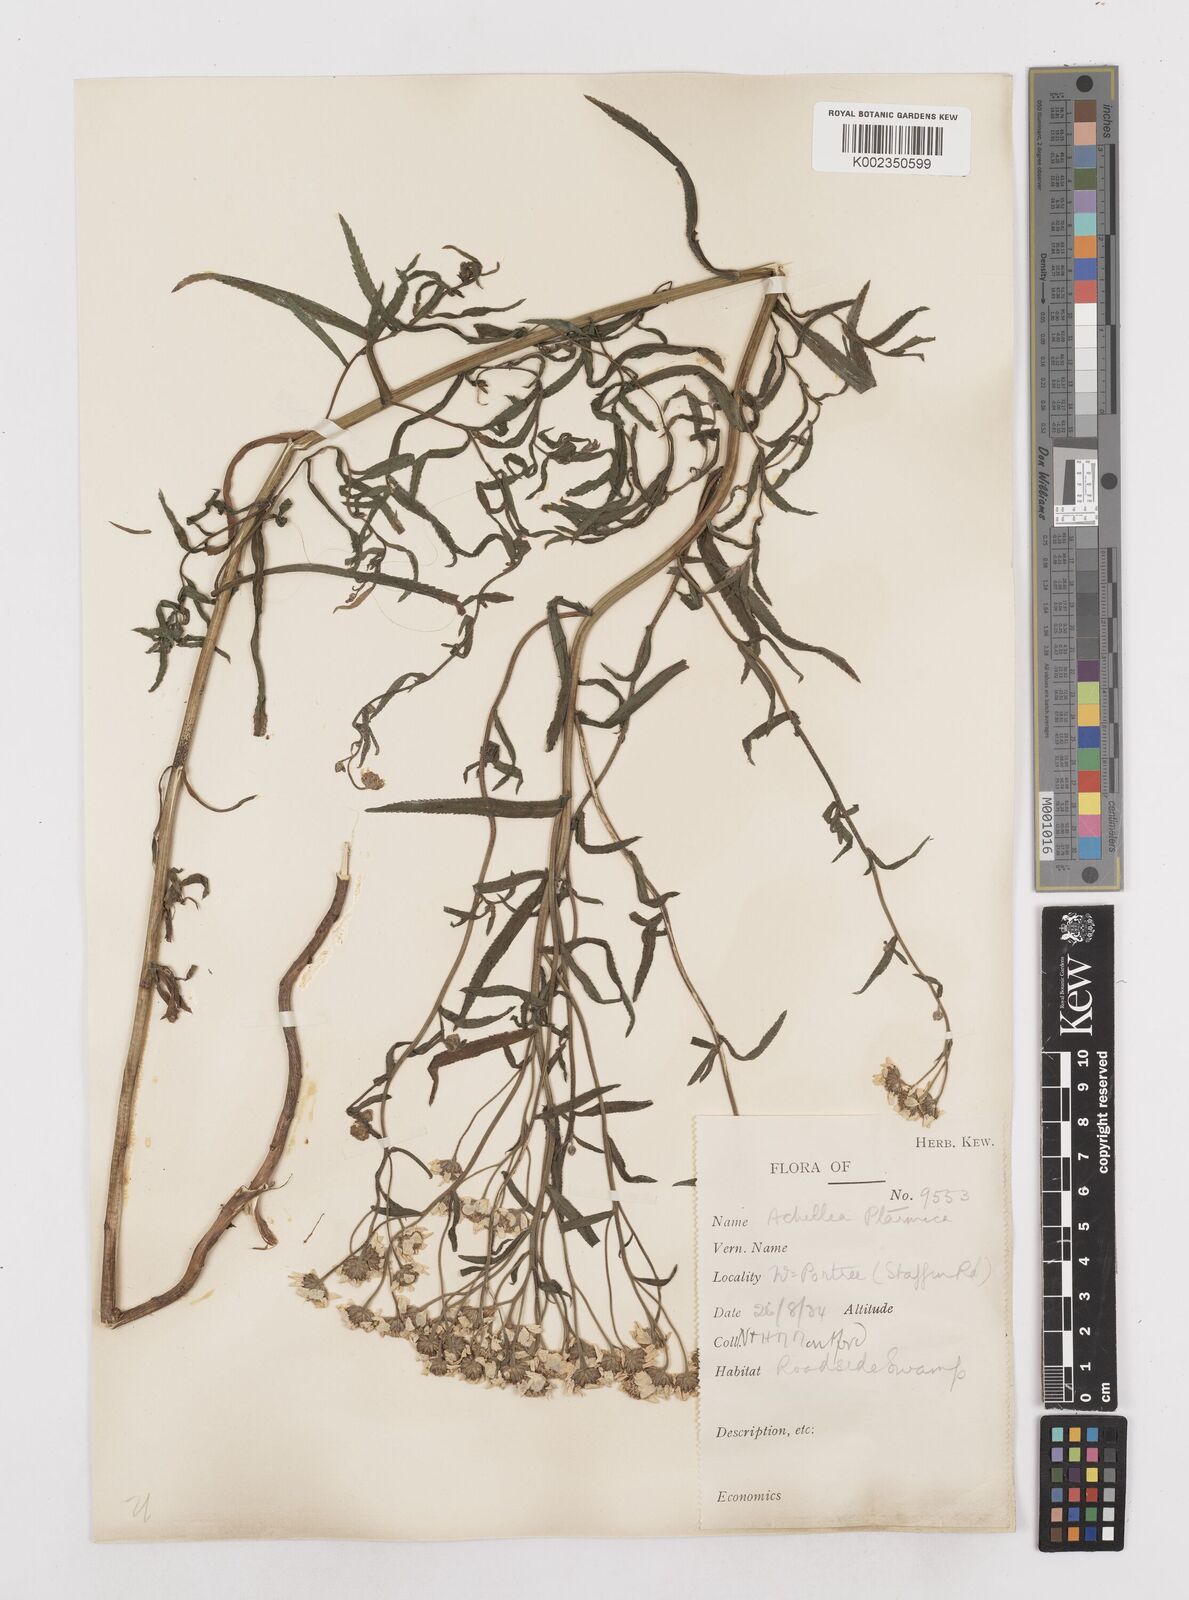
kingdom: Plantae
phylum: Tracheophyta
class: Magnoliopsida
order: Asterales
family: Asteraceae
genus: Achillea
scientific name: Achillea
